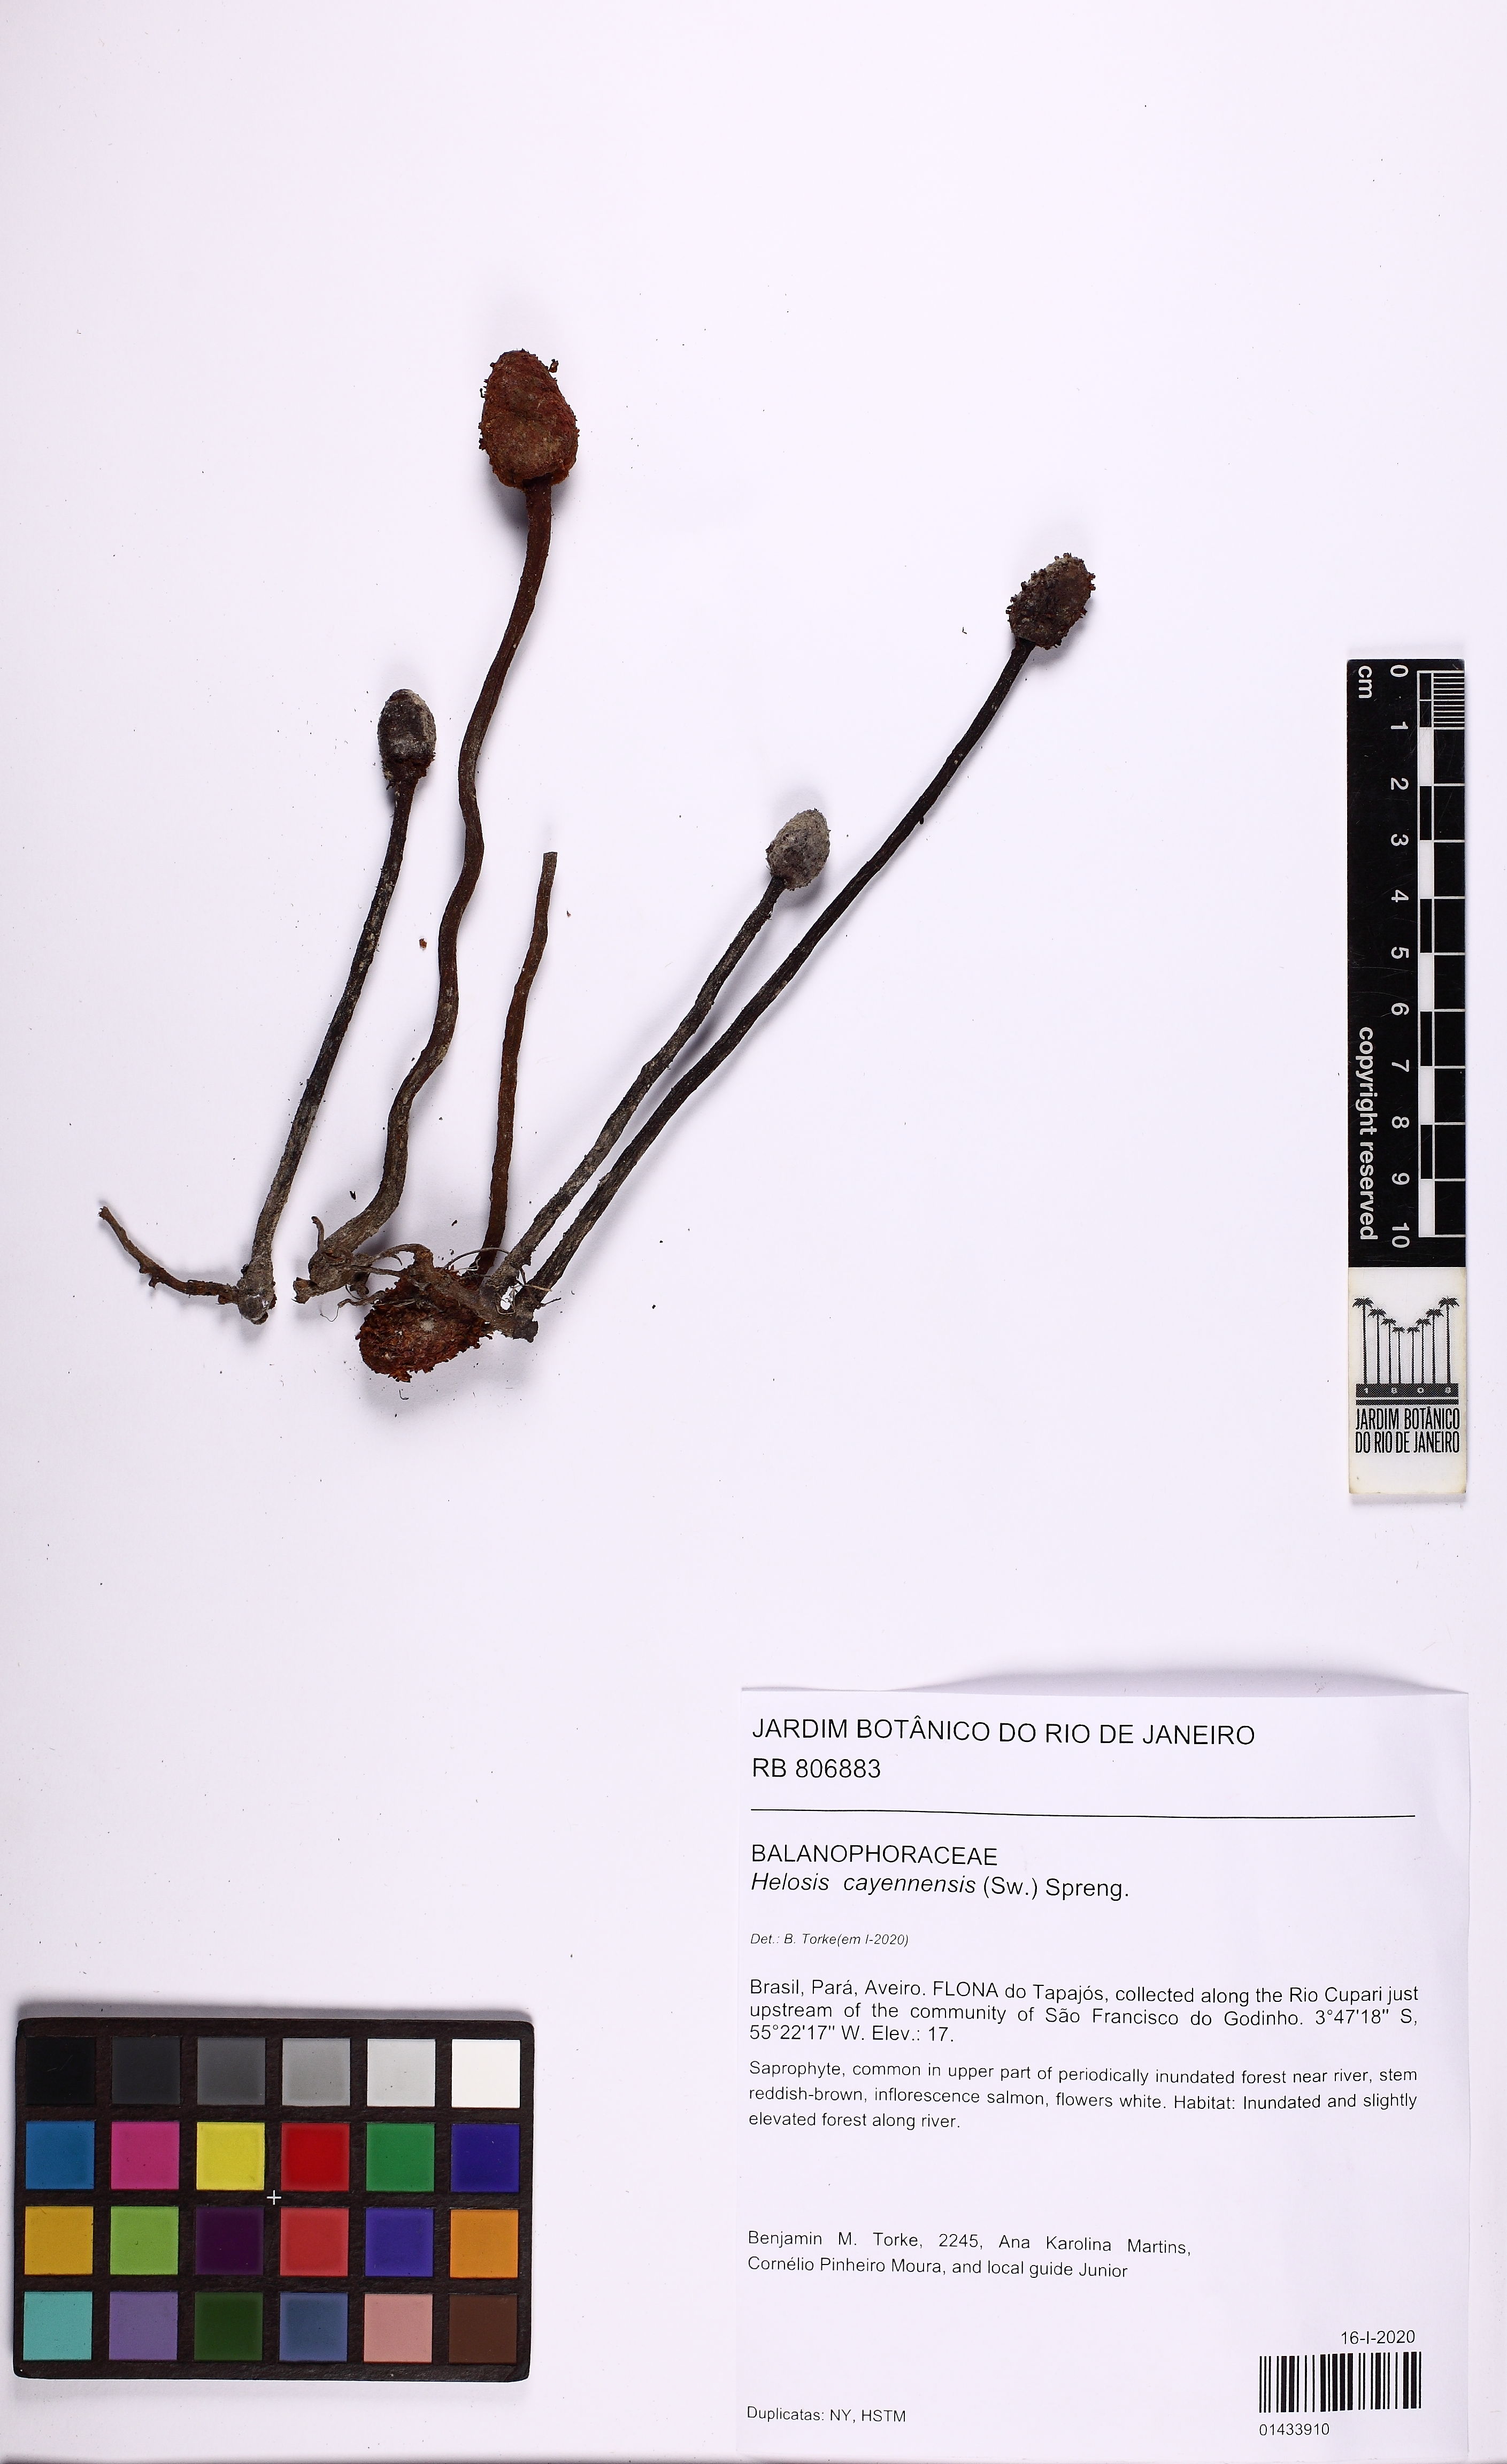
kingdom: Plantae
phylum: Tracheophyta
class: Magnoliopsida
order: Santalales
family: Balanophoraceae
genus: Helosis
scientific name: Helosis cayennensis
